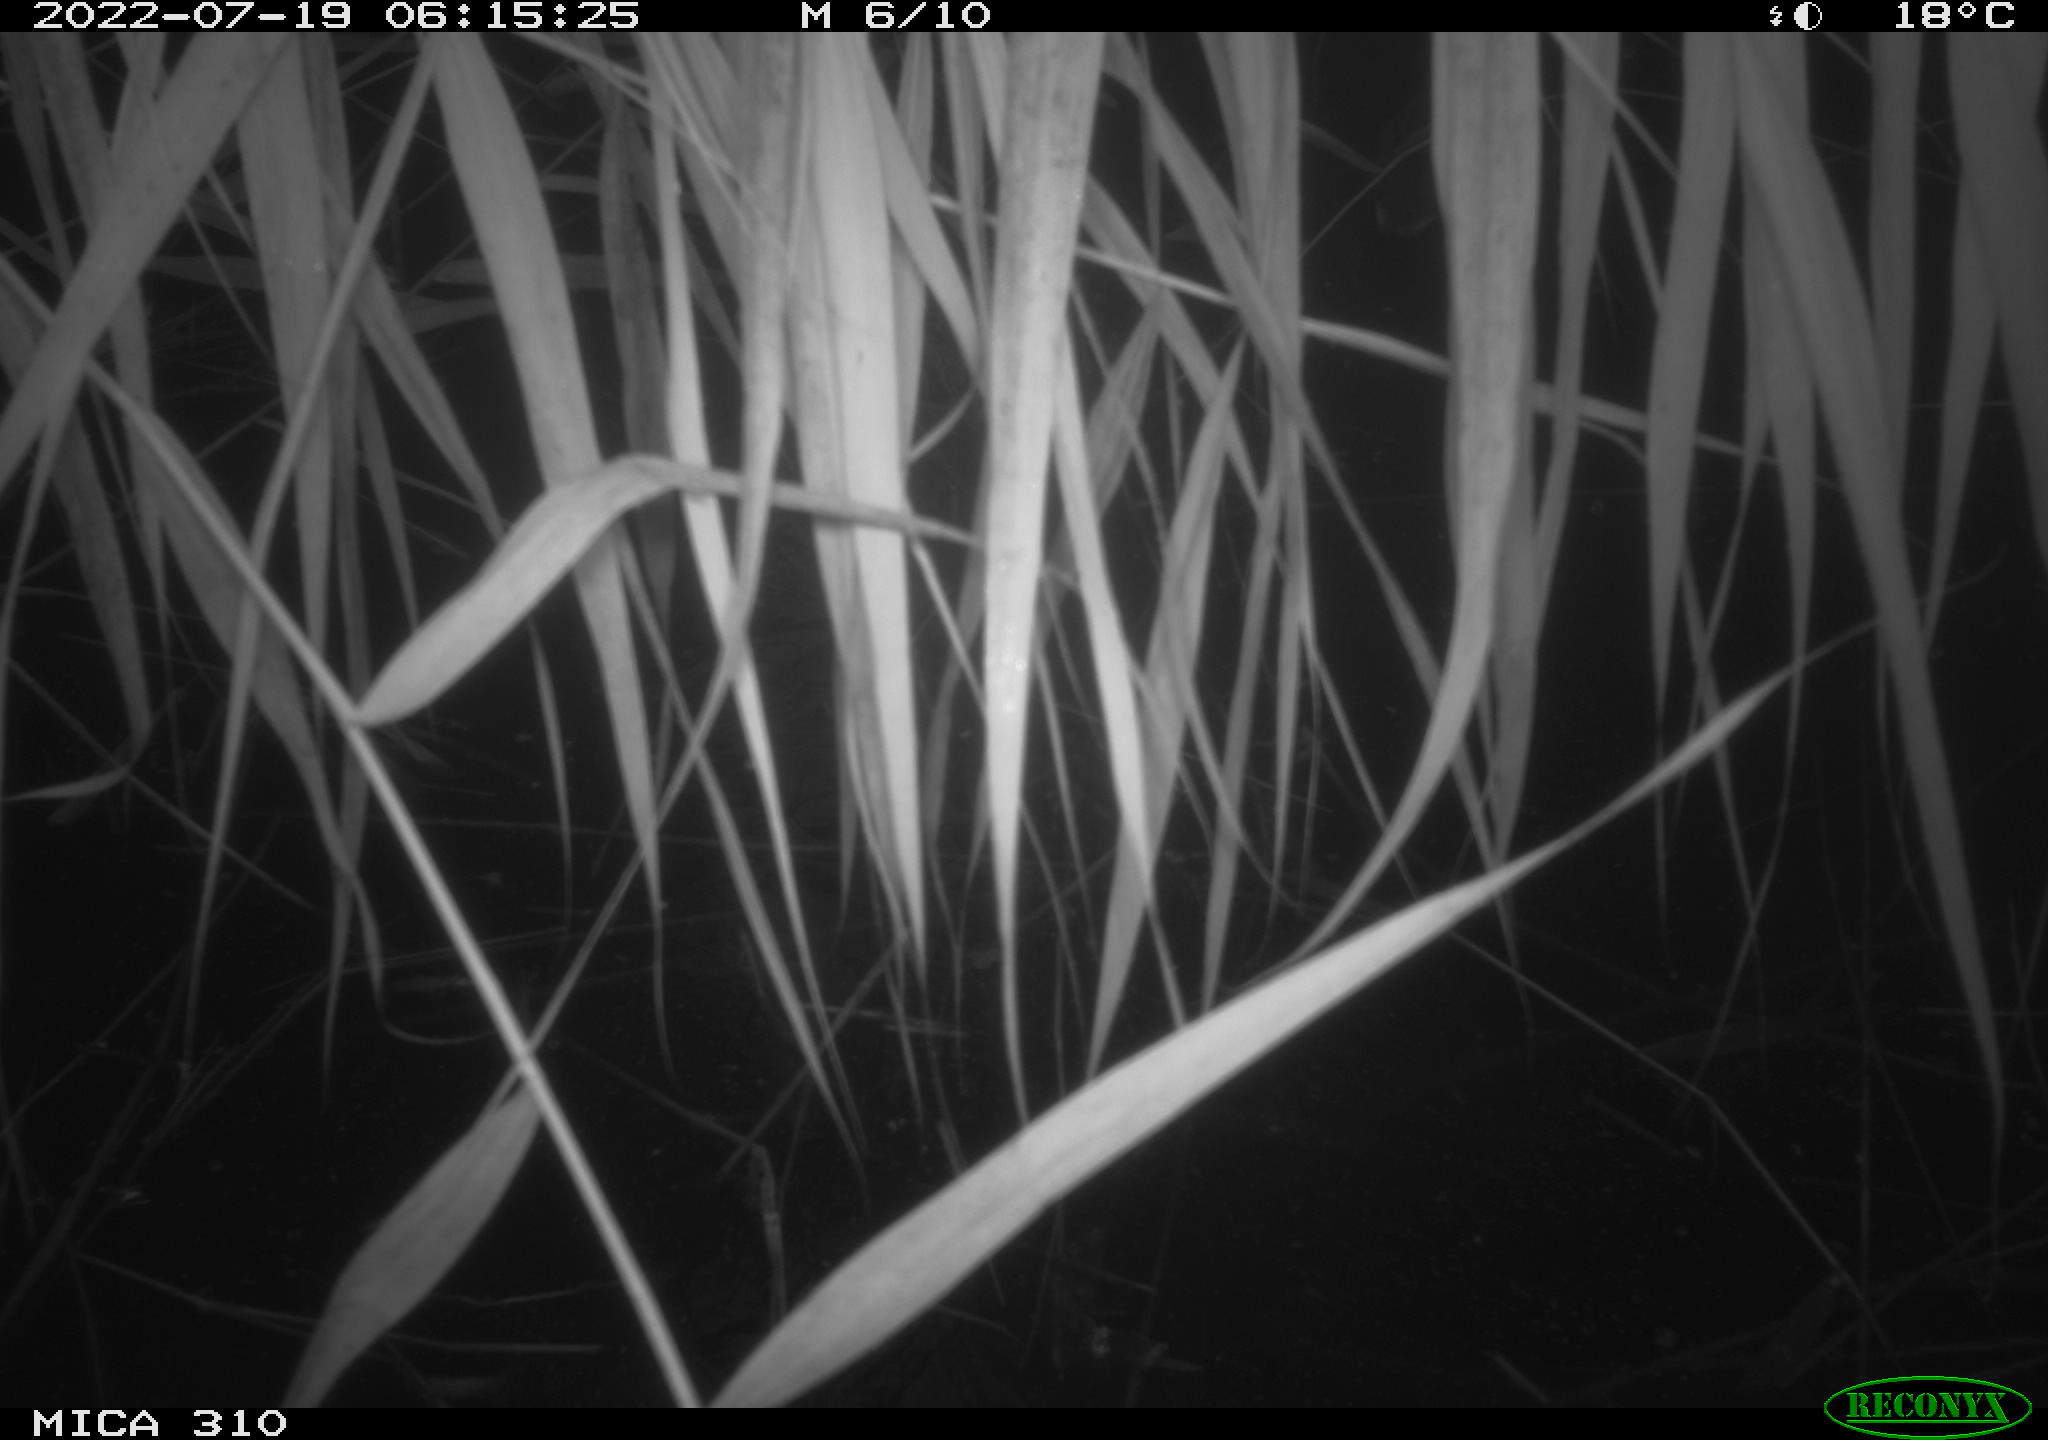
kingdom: Animalia
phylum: Chordata
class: Aves
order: Anseriformes
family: Anatidae
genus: Anas
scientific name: Anas platyrhynchos
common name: Mallard
